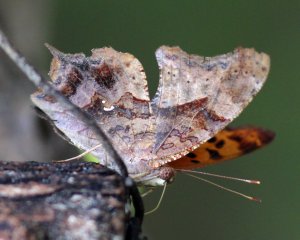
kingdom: Animalia
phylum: Arthropoda
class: Insecta
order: Lepidoptera
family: Nymphalidae
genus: Polygonia
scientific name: Polygonia interrogationis
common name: Question Mark
